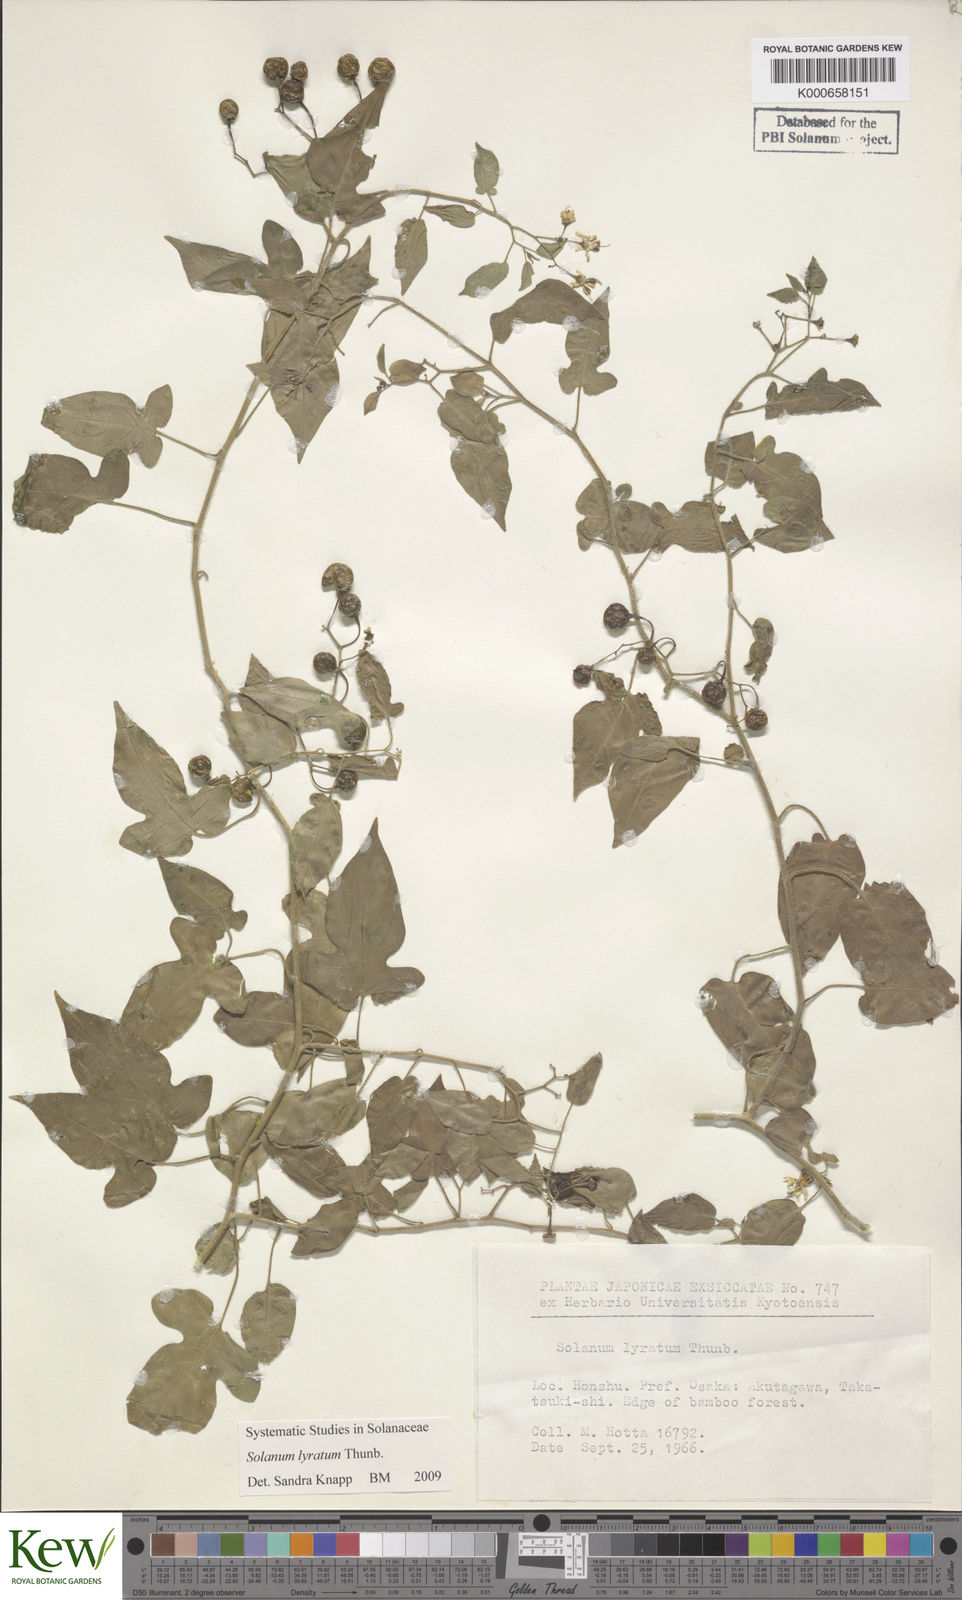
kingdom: Plantae
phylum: Tracheophyta
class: Magnoliopsida
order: Solanales
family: Solanaceae
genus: Solanum
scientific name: Solanum lyratum
